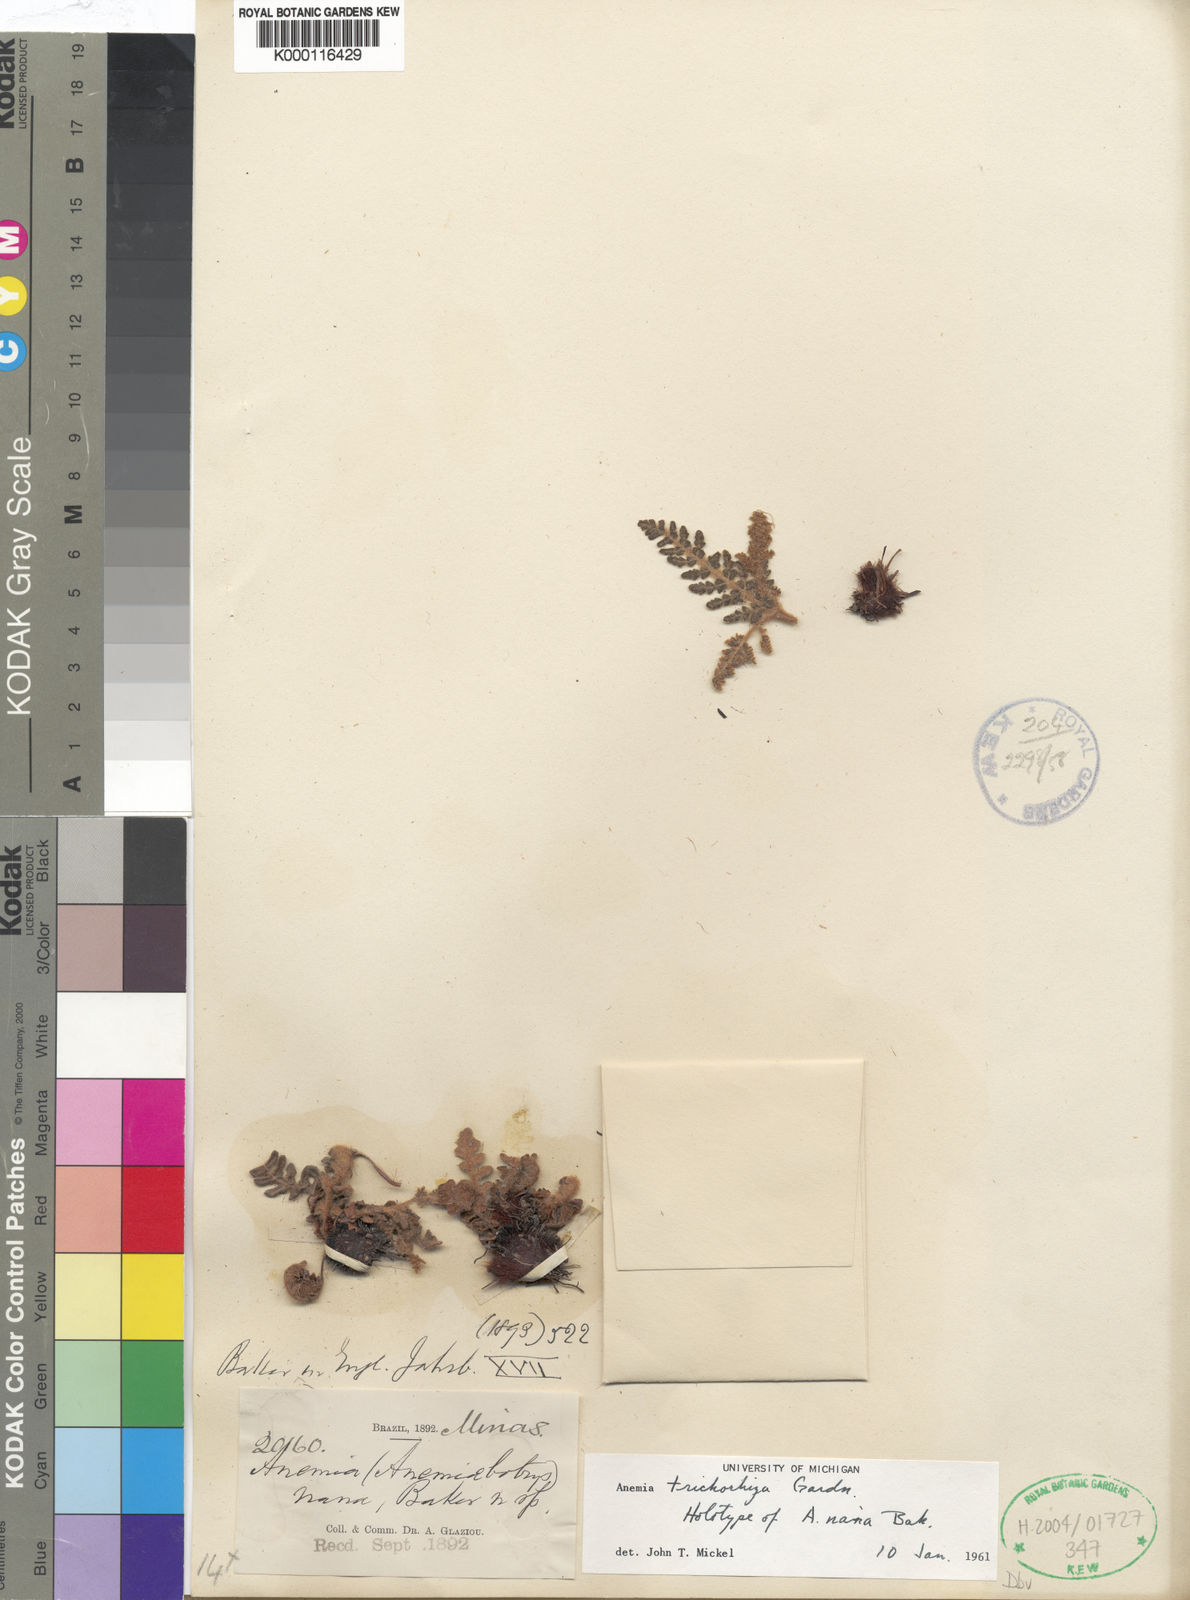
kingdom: Plantae
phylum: Tracheophyta
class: Polypodiopsida
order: Schizaeales
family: Anemiaceae
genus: Anemia
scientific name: Anemia trichorhiza
